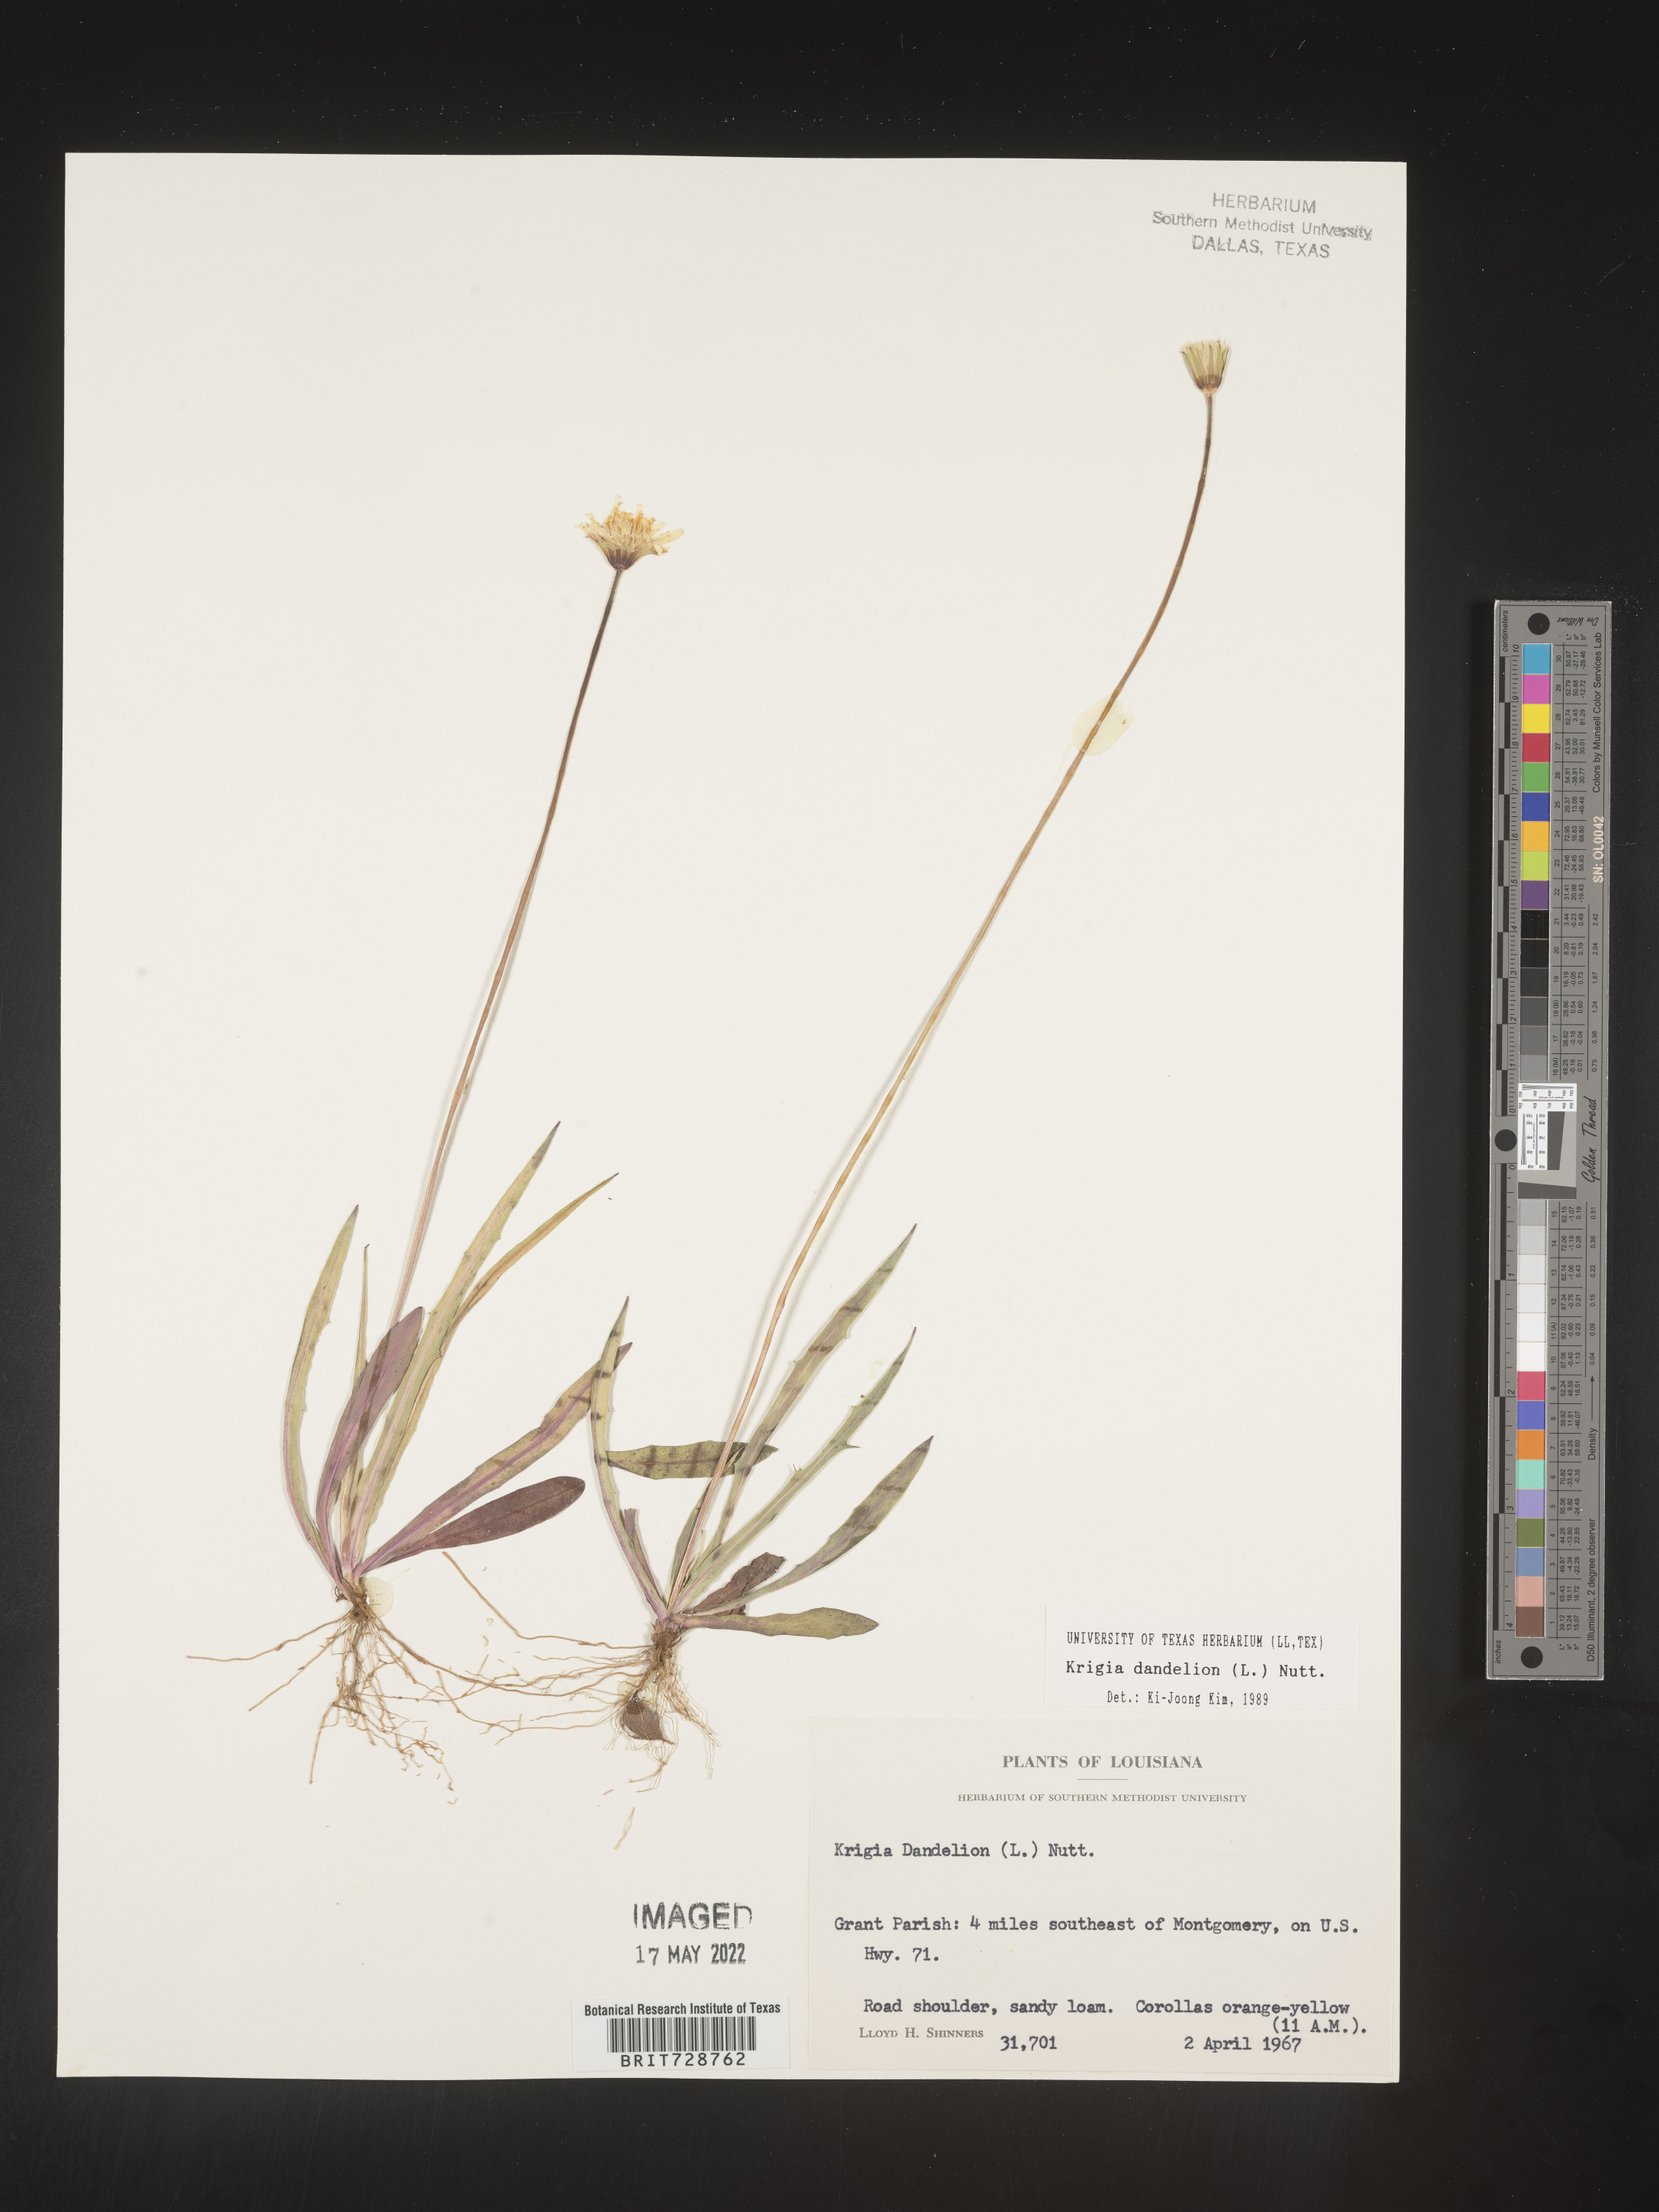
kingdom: Plantae
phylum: Tracheophyta
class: Magnoliopsida
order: Asterales
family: Asteraceae
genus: Krigia
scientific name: Krigia dandelion
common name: Colonial dwarf-dandelion
